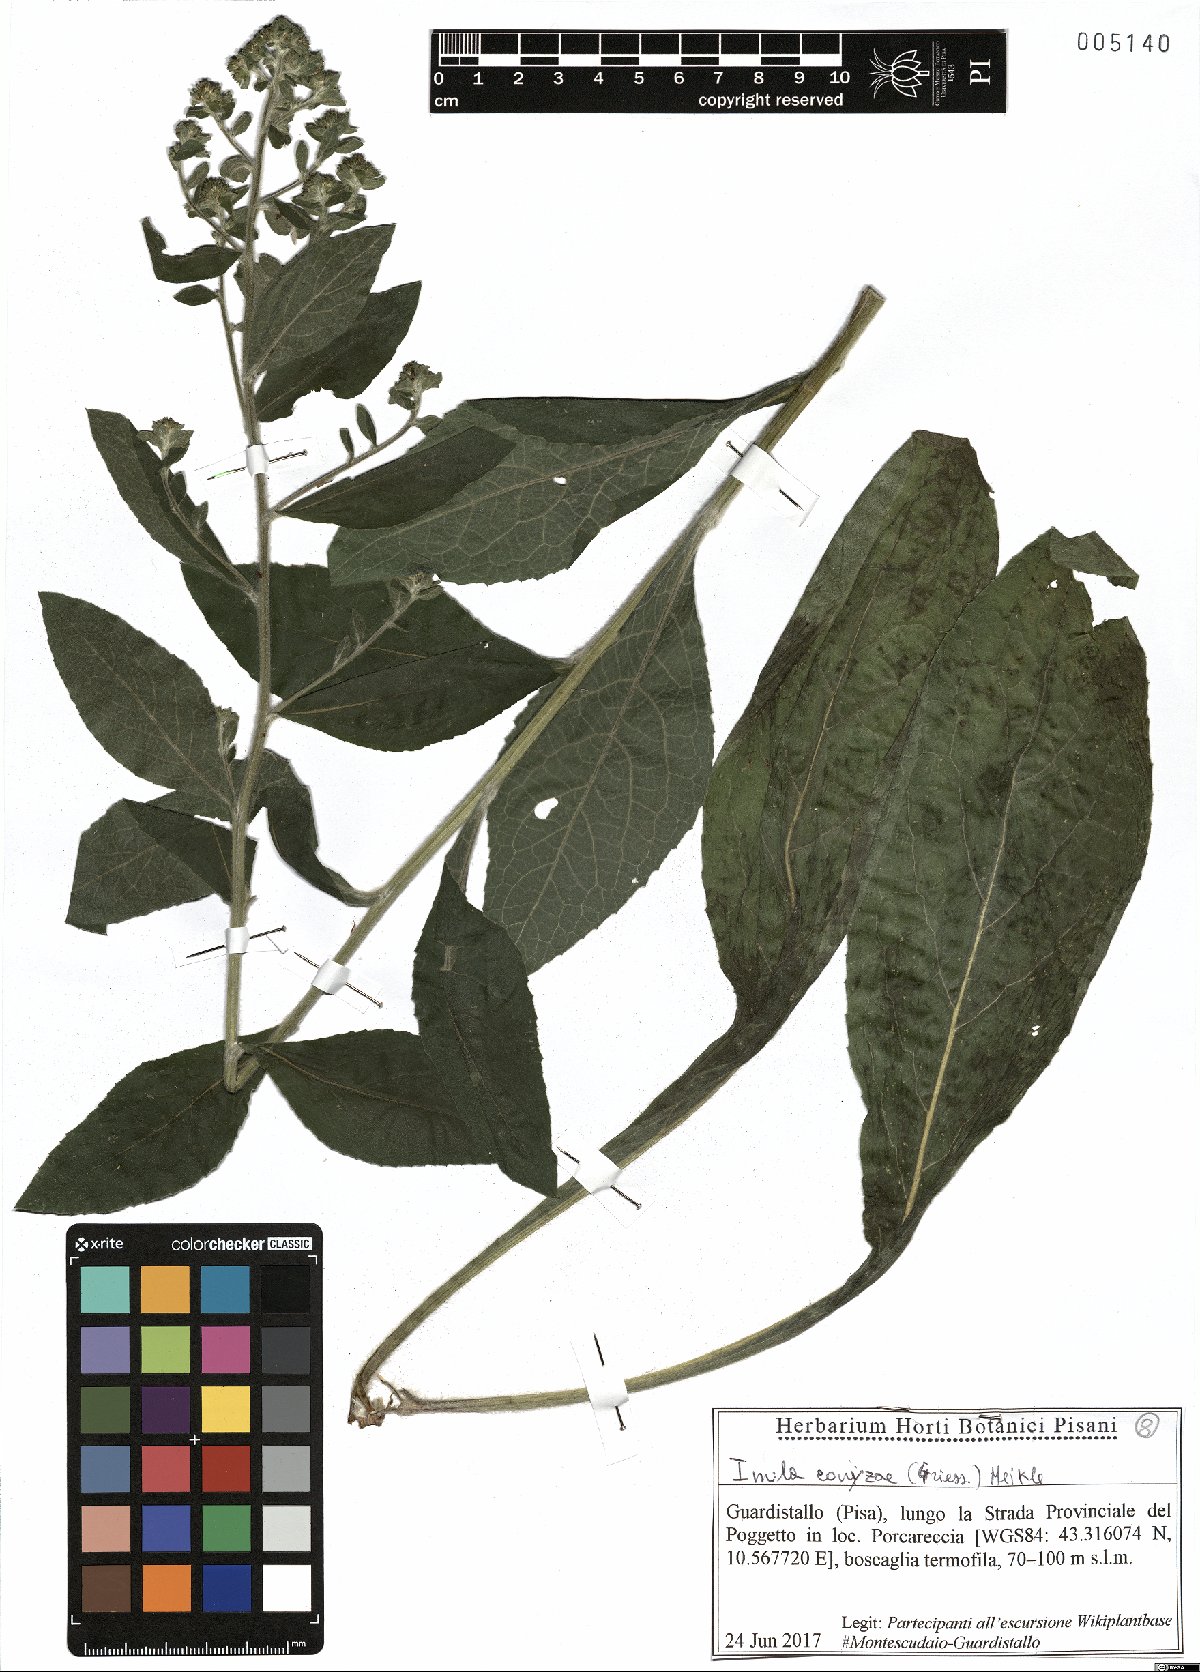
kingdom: Plantae
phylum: Tracheophyta
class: Magnoliopsida
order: Asterales
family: Asteraceae
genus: Pentanema
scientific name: Pentanema squarrosum
